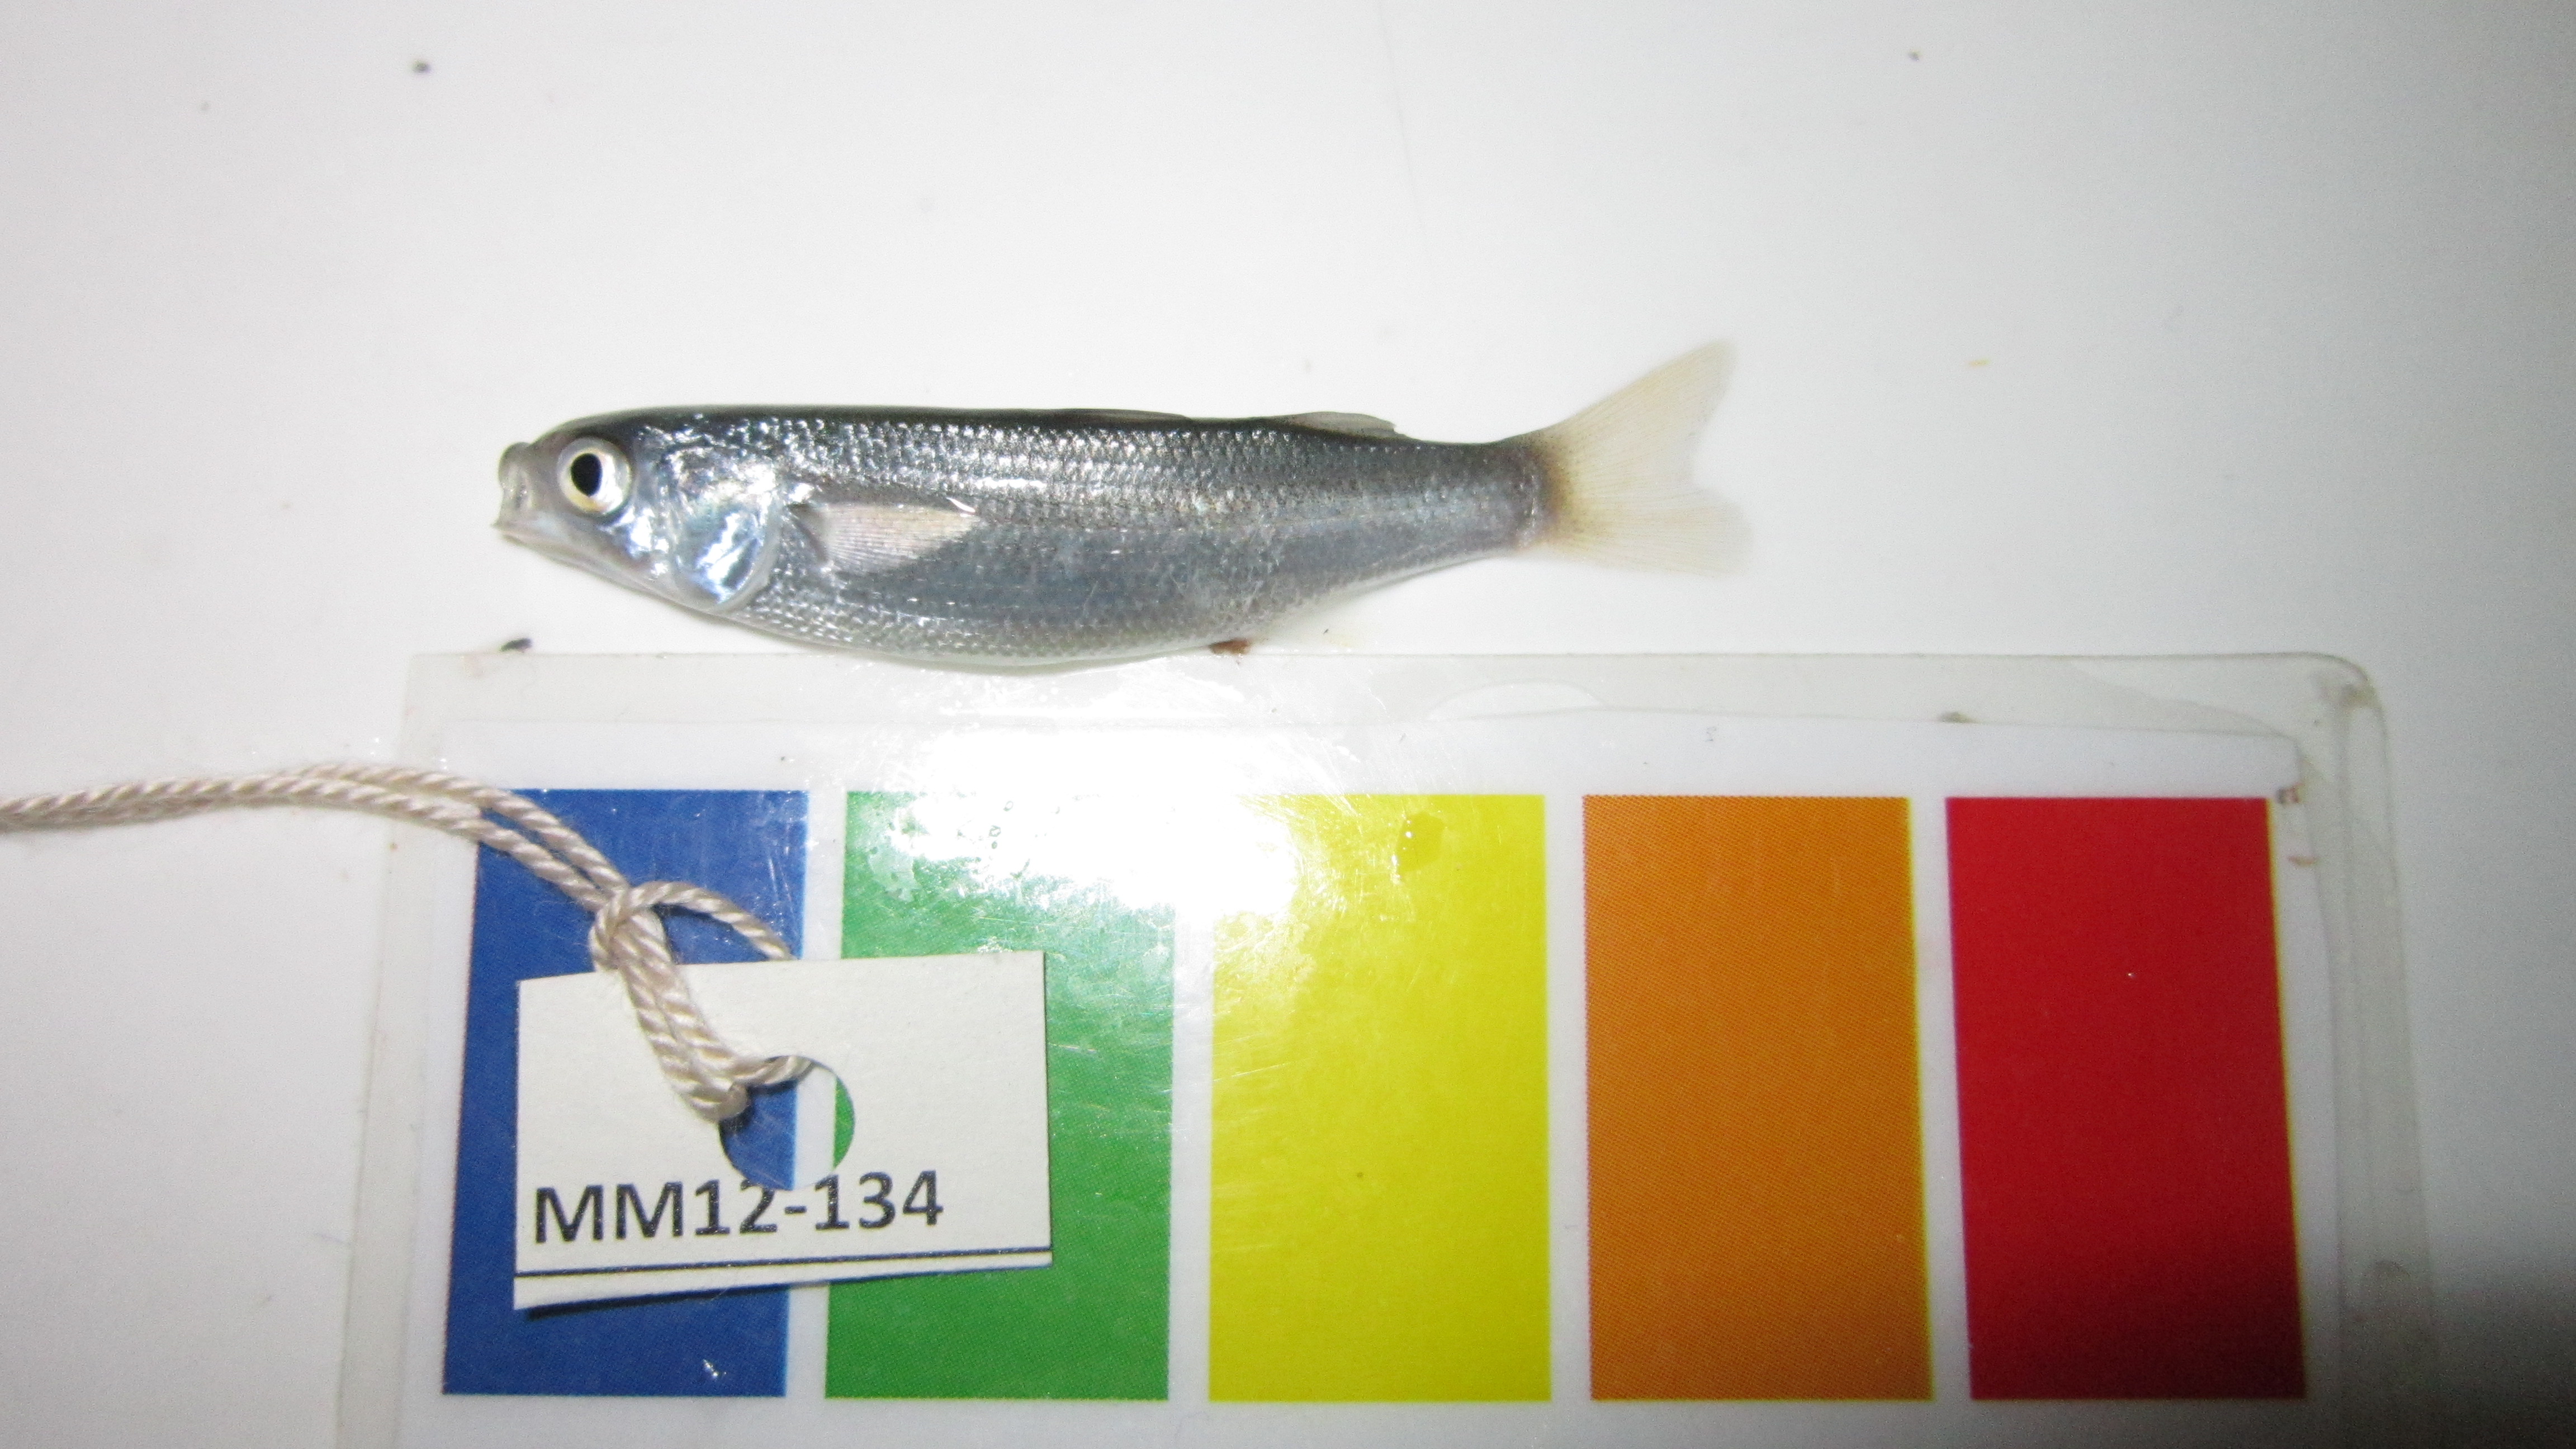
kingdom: Animalia
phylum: Chordata
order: Mugiliformes
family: Mugilidae
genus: Pseudomyxus
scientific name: Pseudomyxus capensis
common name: Freshwater mullet
